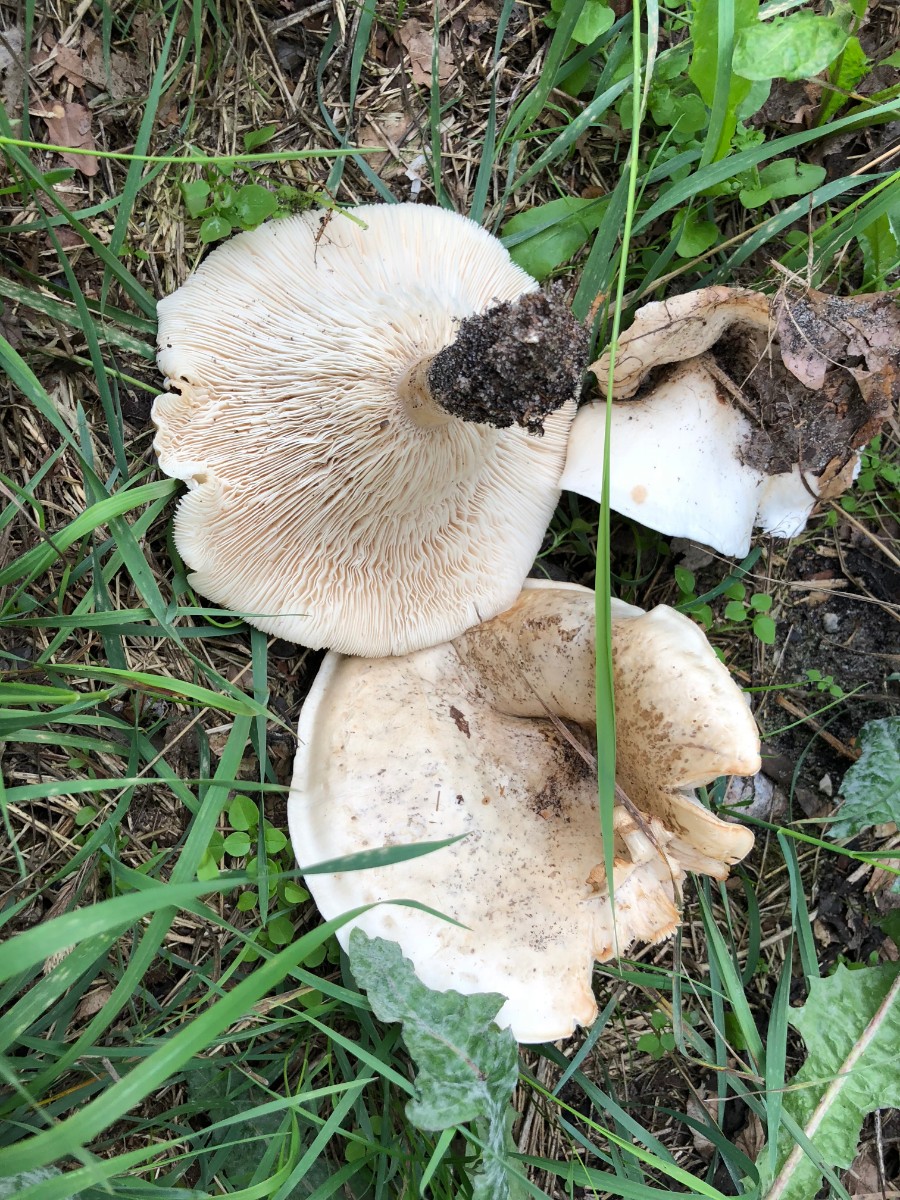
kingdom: Fungi
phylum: Basidiomycota
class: Agaricomycetes
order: Agaricales
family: Tricholomataceae
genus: Aspropaxillus
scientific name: Aspropaxillus giganteus
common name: kæmpe-tragtridderhat
